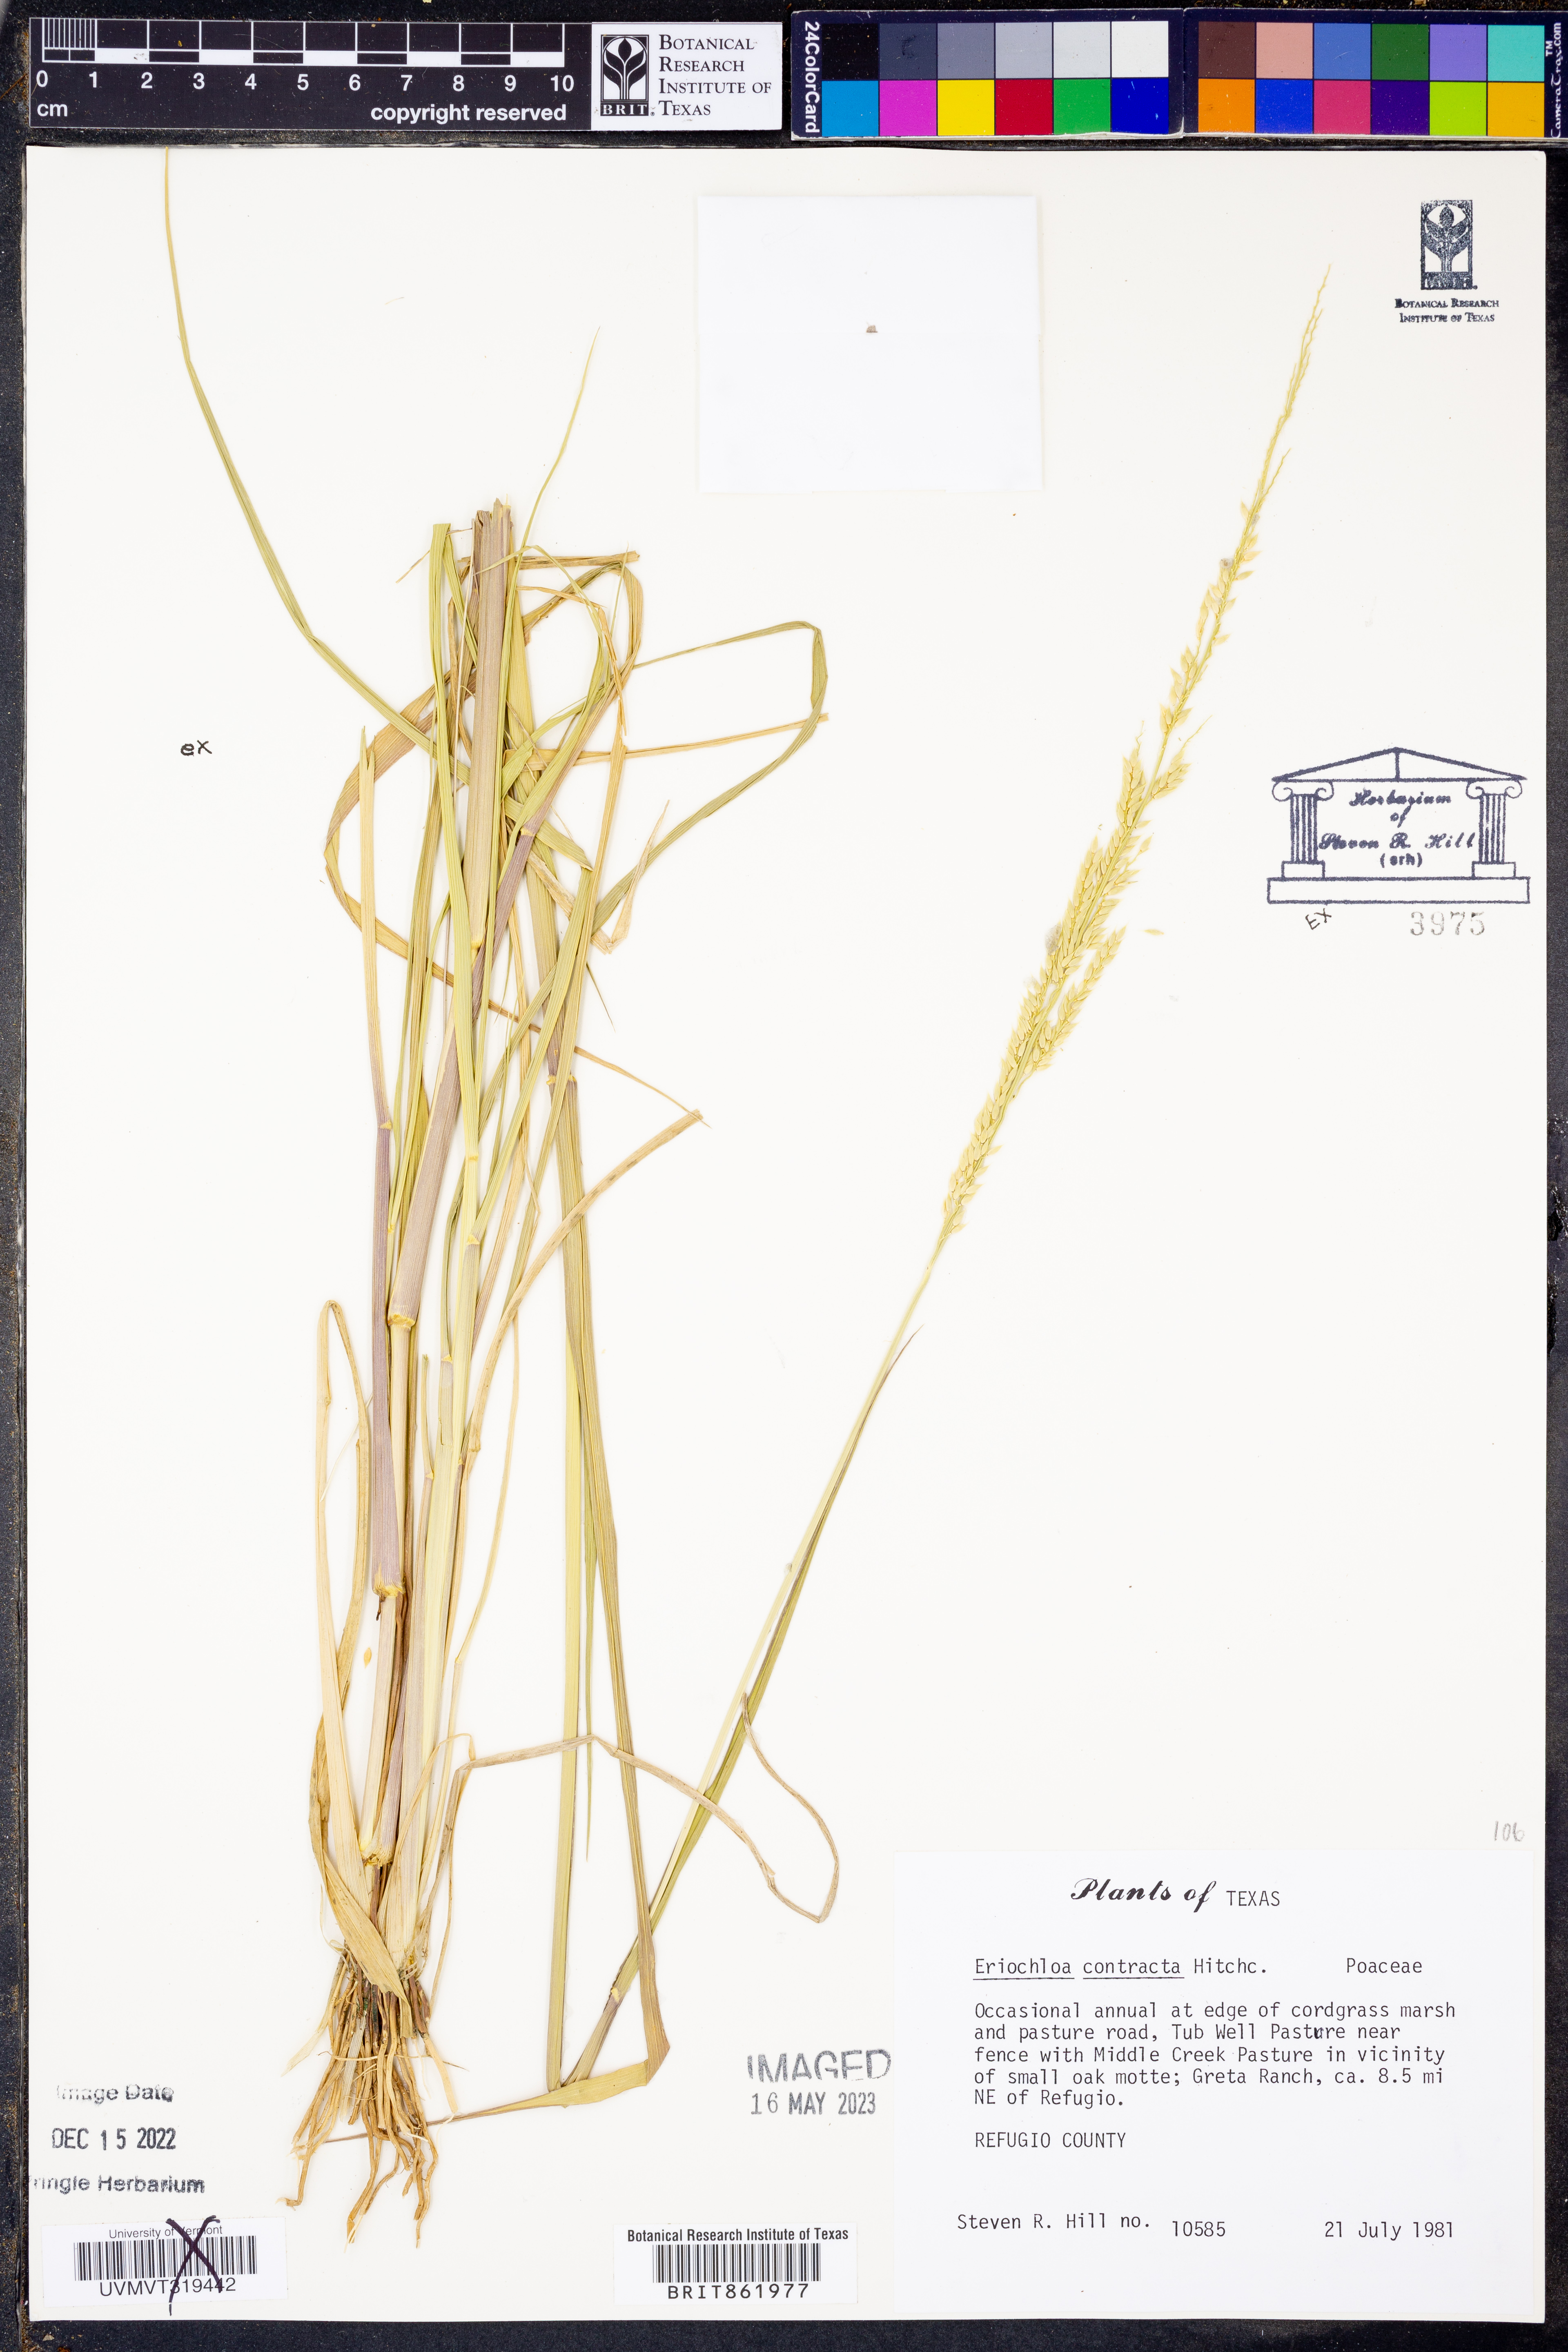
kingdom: Plantae
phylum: Tracheophyta
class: Liliopsida
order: Poales
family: Poaceae
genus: Eriochloa
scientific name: Eriochloa contracta
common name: Prairie cup grass
